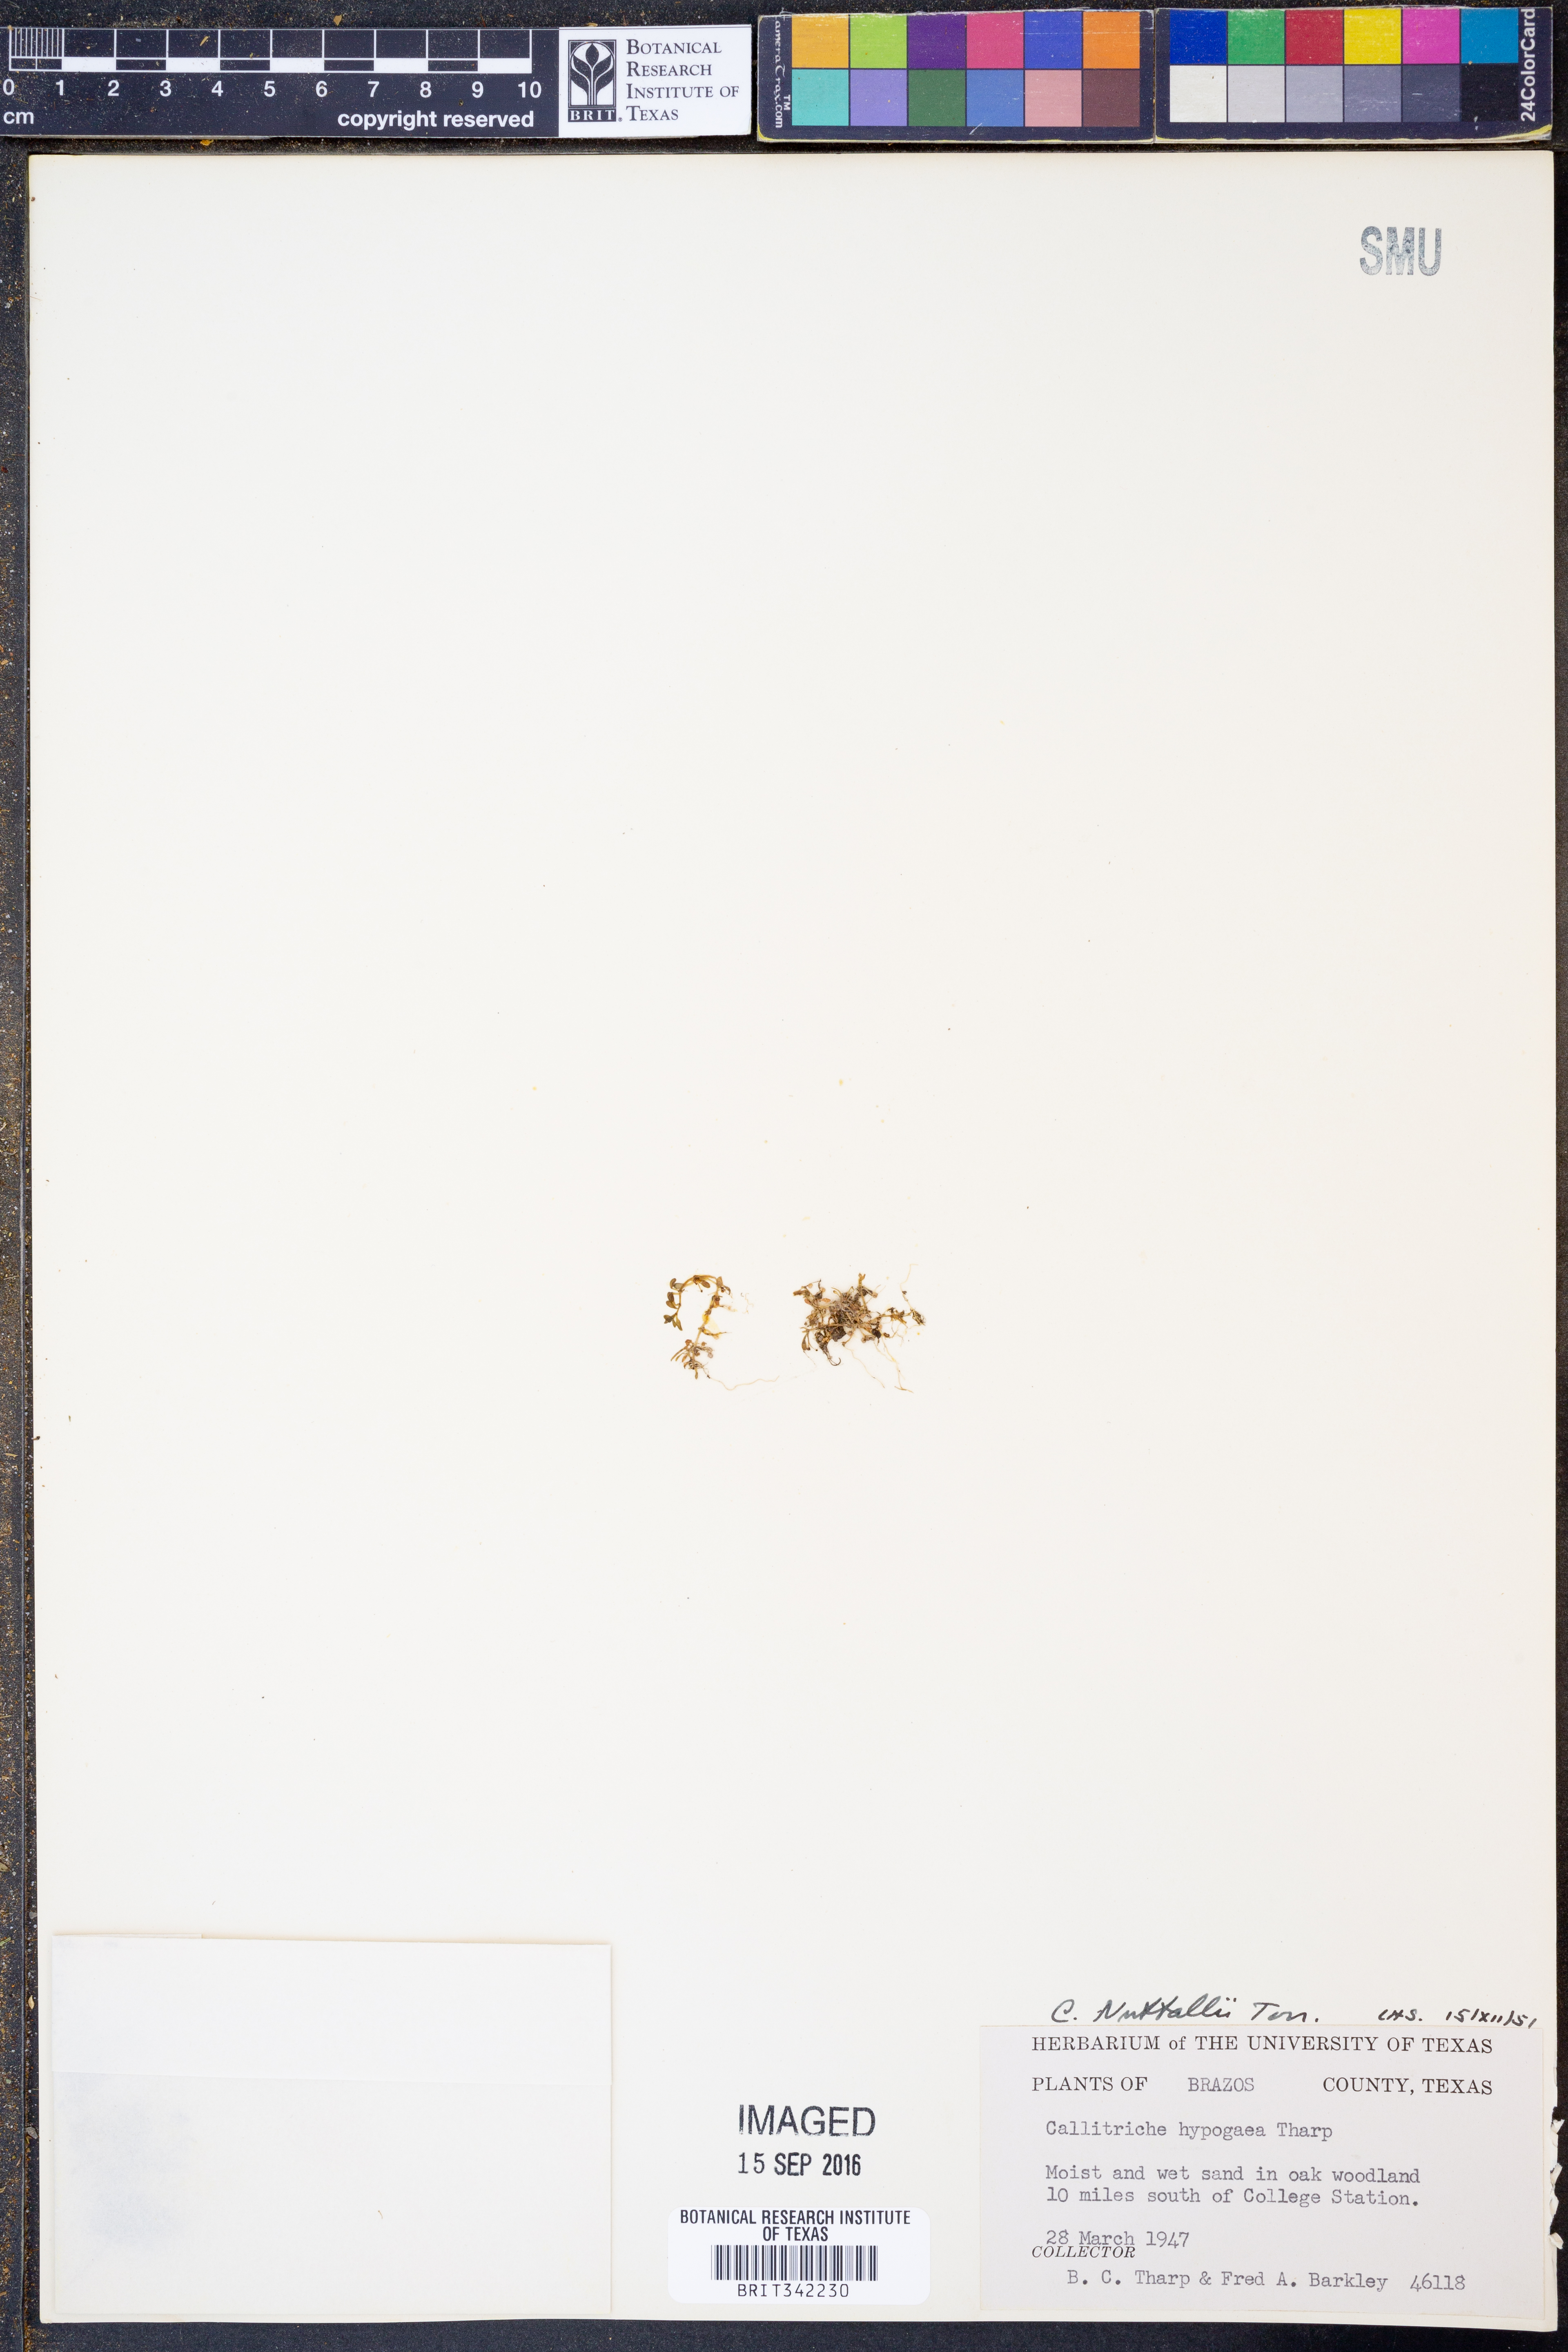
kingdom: Plantae
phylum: Tracheophyta
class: Magnoliopsida
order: Lamiales
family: Plantaginaceae
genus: Callitriche
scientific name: Callitriche pedunculosa
